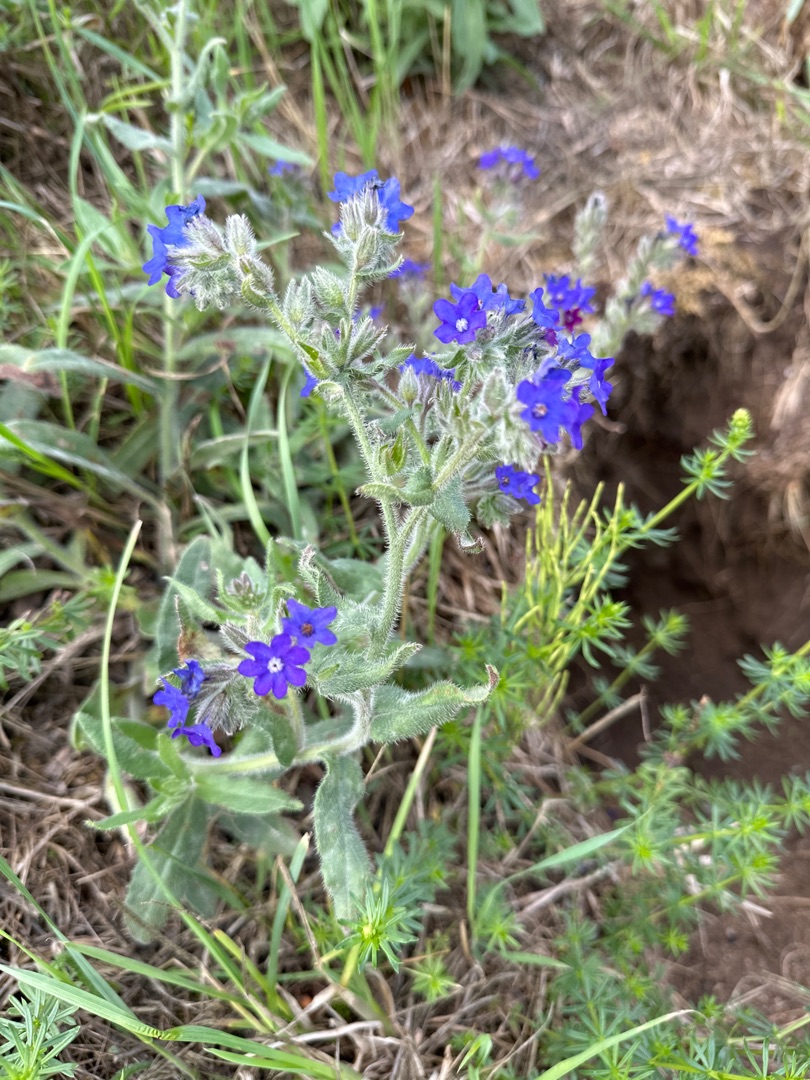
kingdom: Plantae
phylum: Tracheophyta
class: Magnoliopsida
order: Boraginales
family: Boraginaceae
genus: Anchusa
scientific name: Anchusa officinalis
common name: Læge-oksetunge
